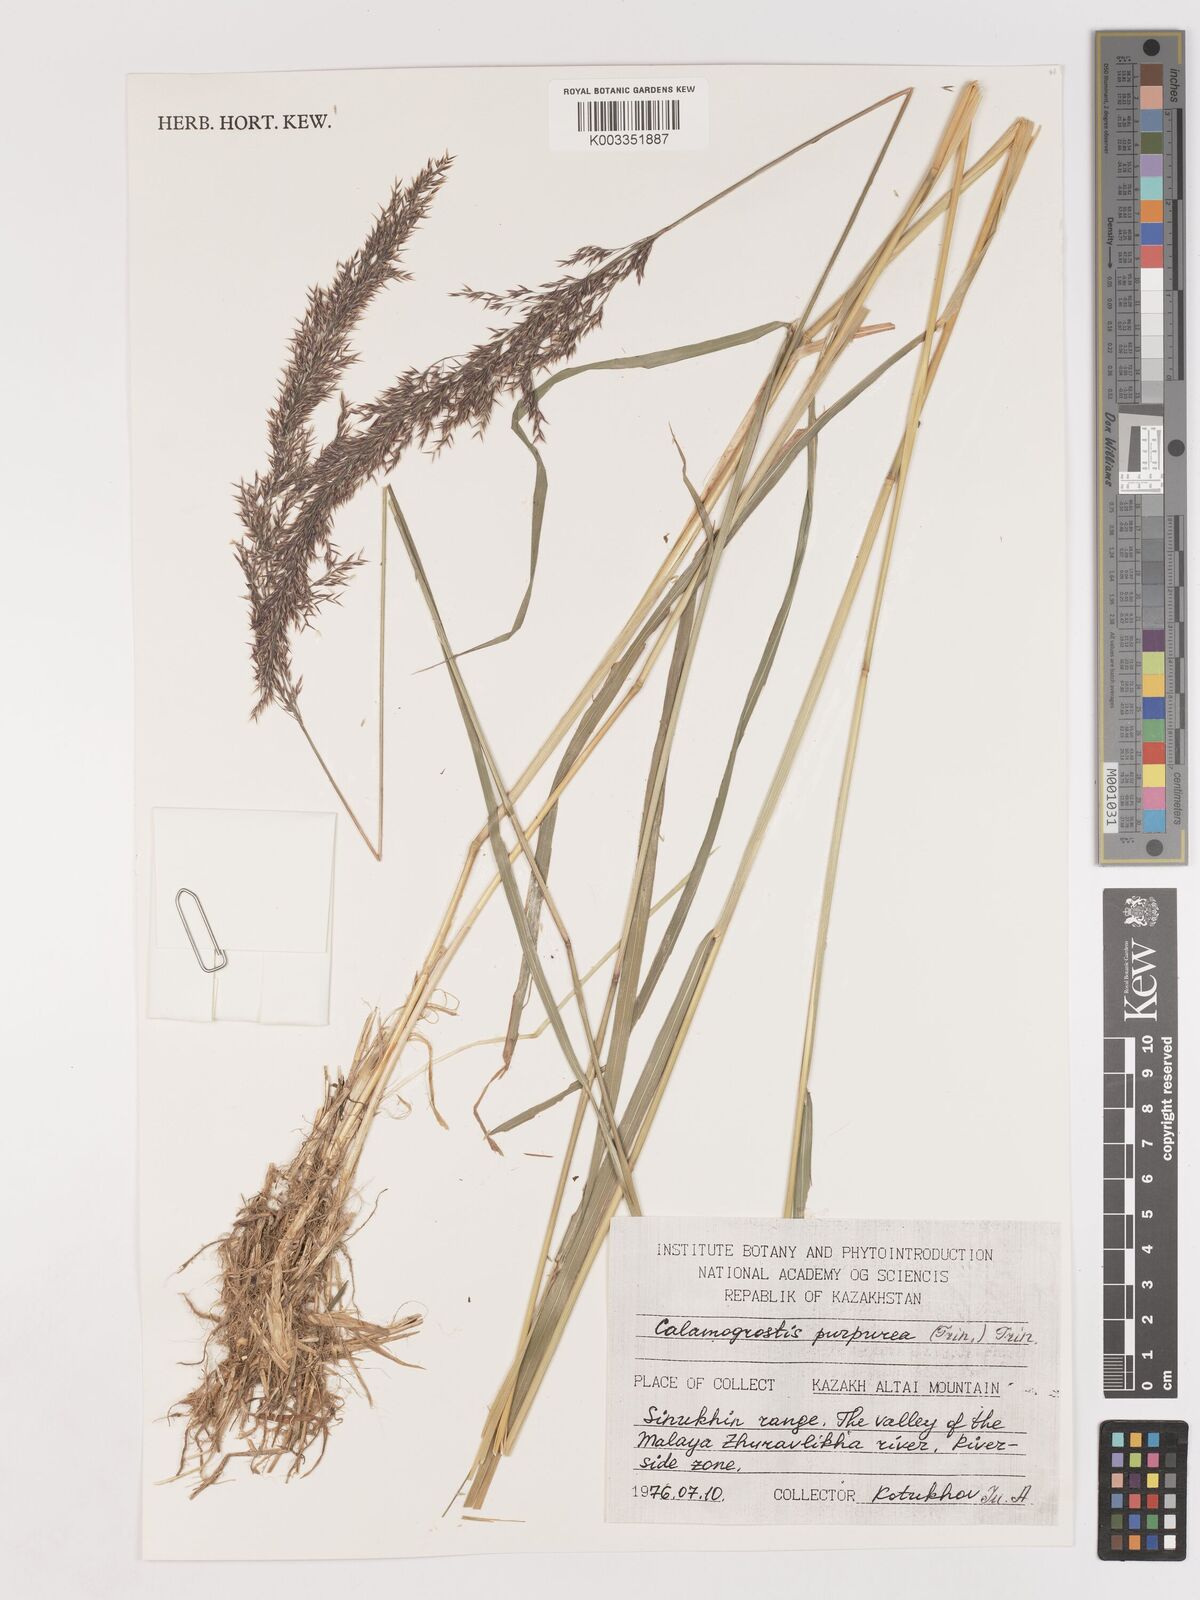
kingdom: Plantae
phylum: Tracheophyta
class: Liliopsida
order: Poales
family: Poaceae
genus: Calamagrostis
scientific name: Calamagrostis purpurea
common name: Scandinavian small-reed
